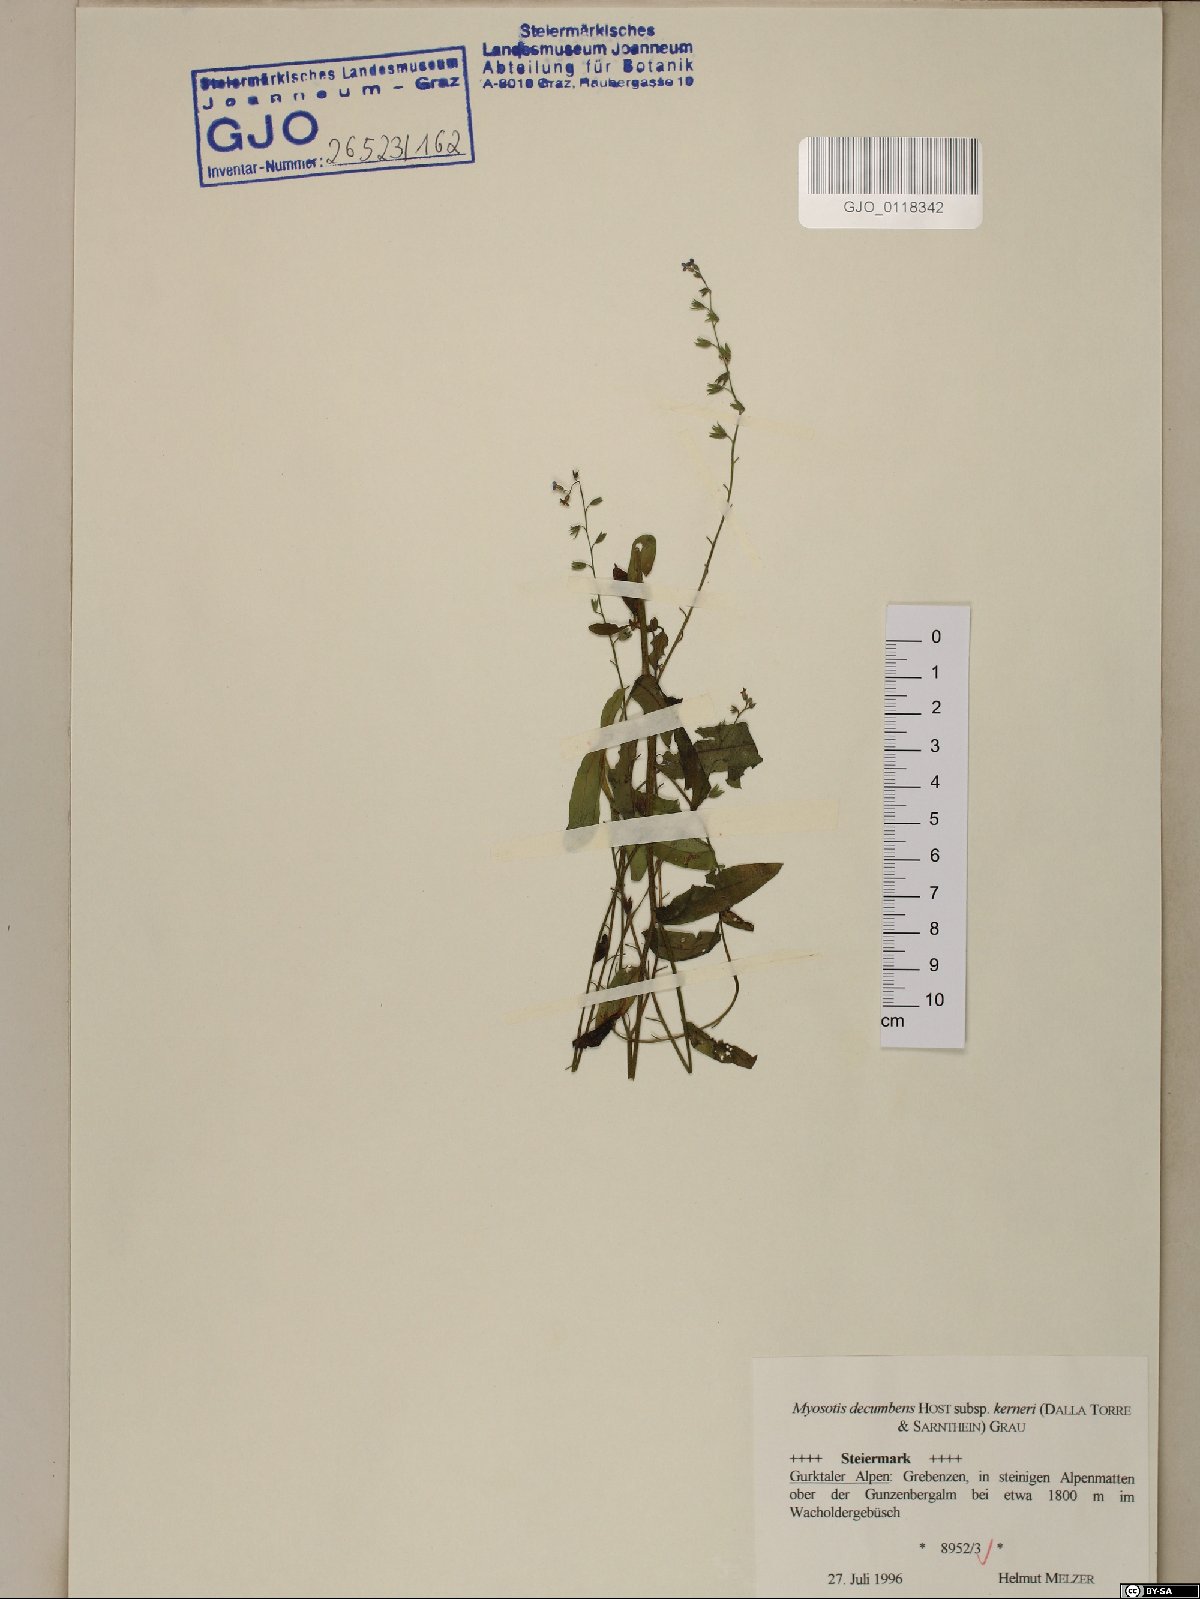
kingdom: Plantae
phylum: Tracheophyta
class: Magnoliopsida
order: Boraginales
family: Boraginaceae
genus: Myosotis
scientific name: Myosotis decumbens
